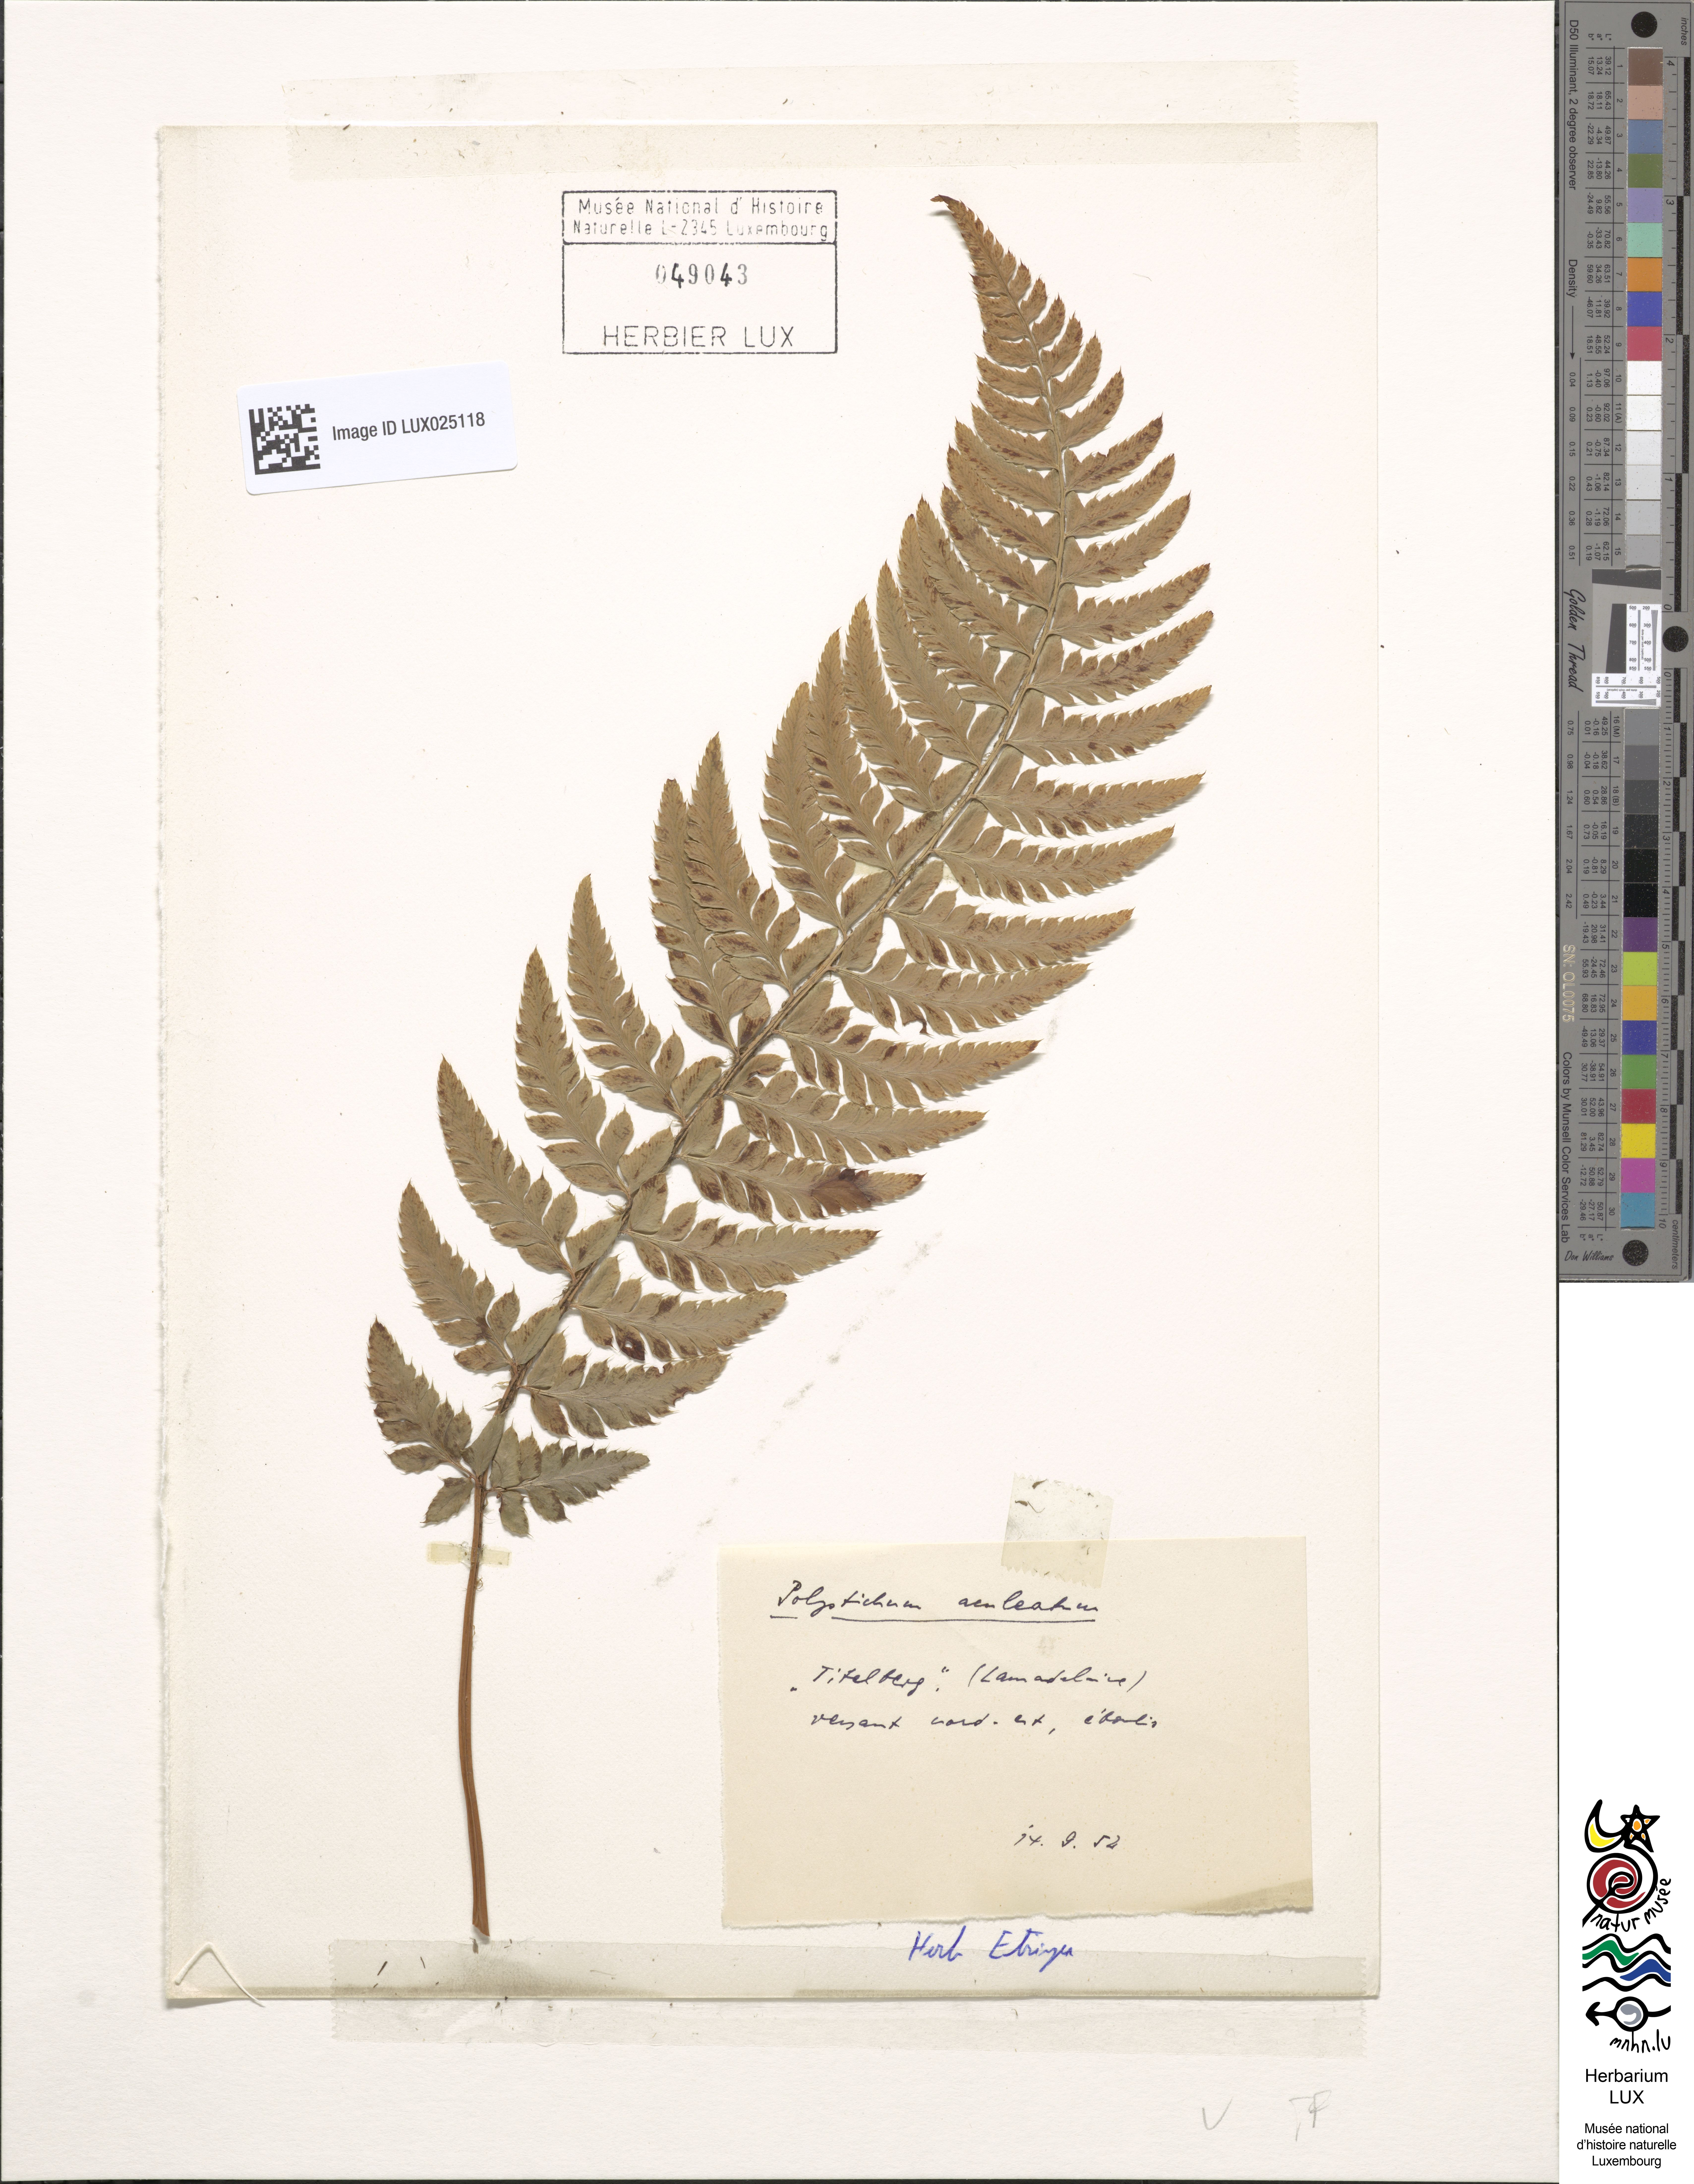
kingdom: Plantae
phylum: Tracheophyta
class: Polypodiopsida
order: Polypodiales
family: Dryopteridaceae
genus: Polystichum
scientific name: Polystichum aculeatum
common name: Hard shield-fern
